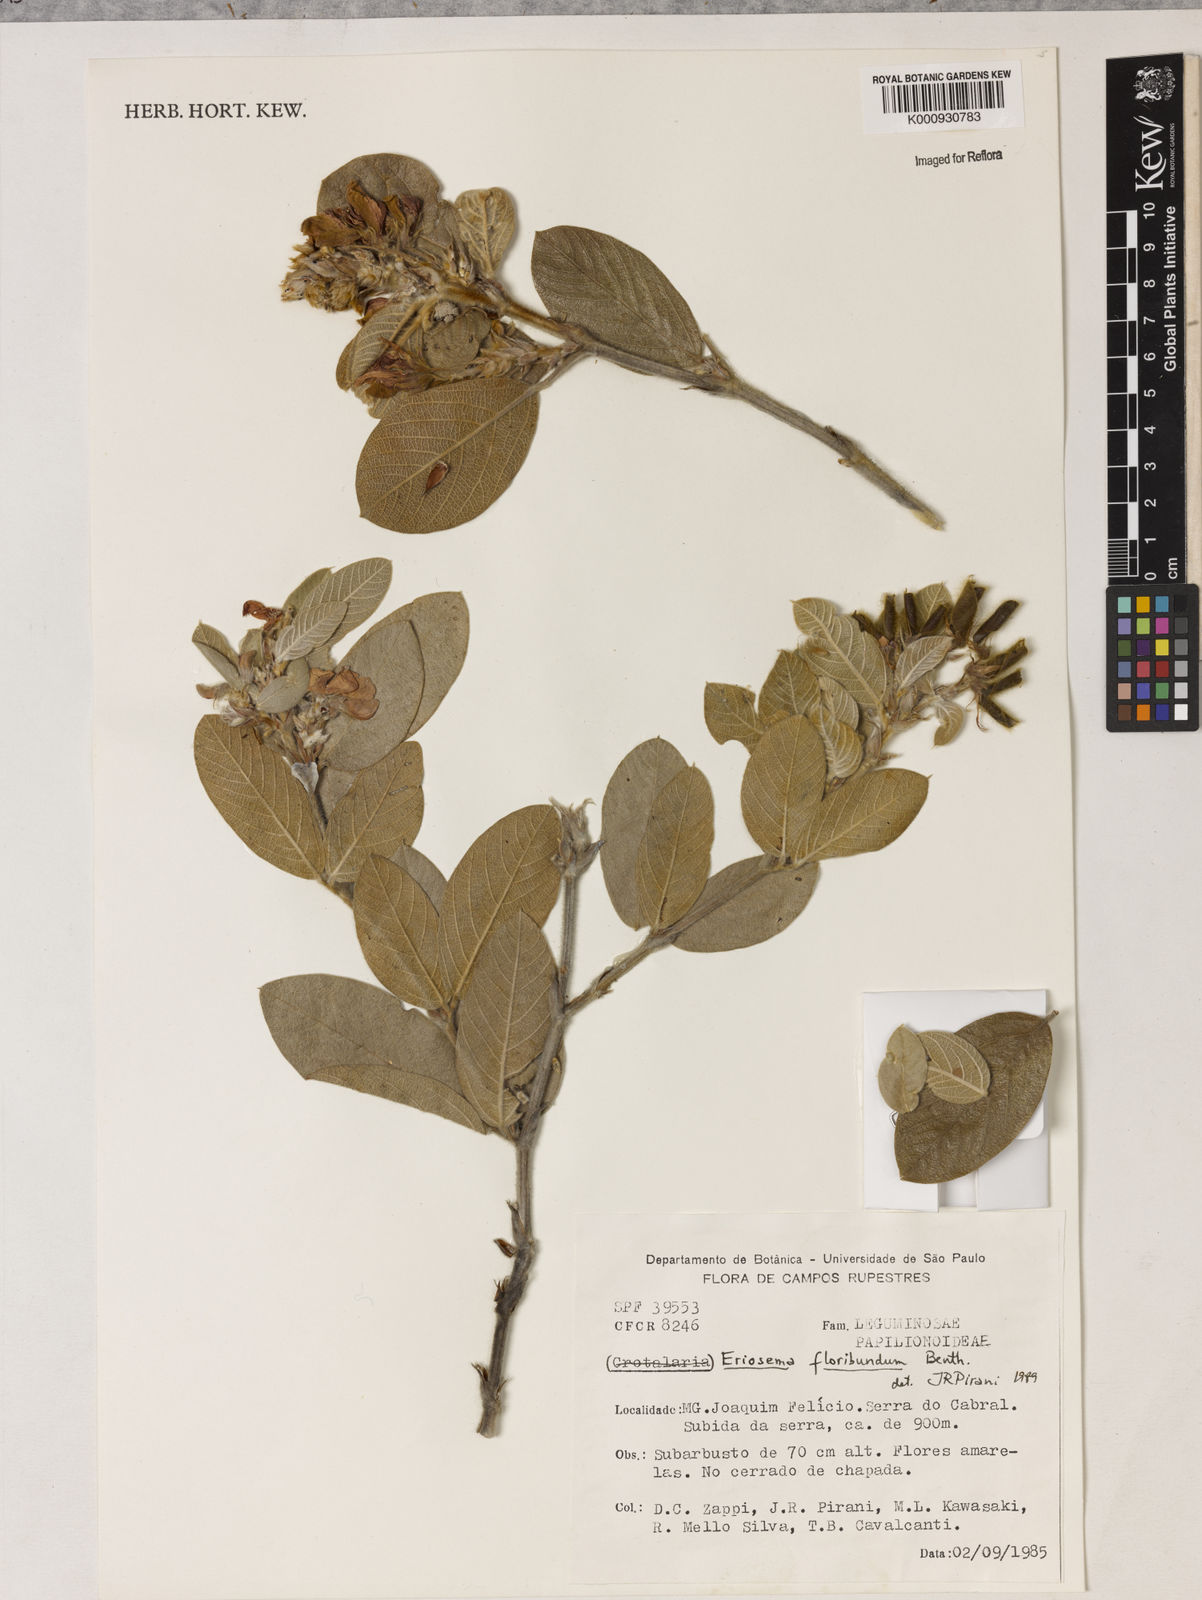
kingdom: Plantae
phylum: Tracheophyta
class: Magnoliopsida
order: Fabales
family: Fabaceae
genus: Eriosema
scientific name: Eriosema floribundum
